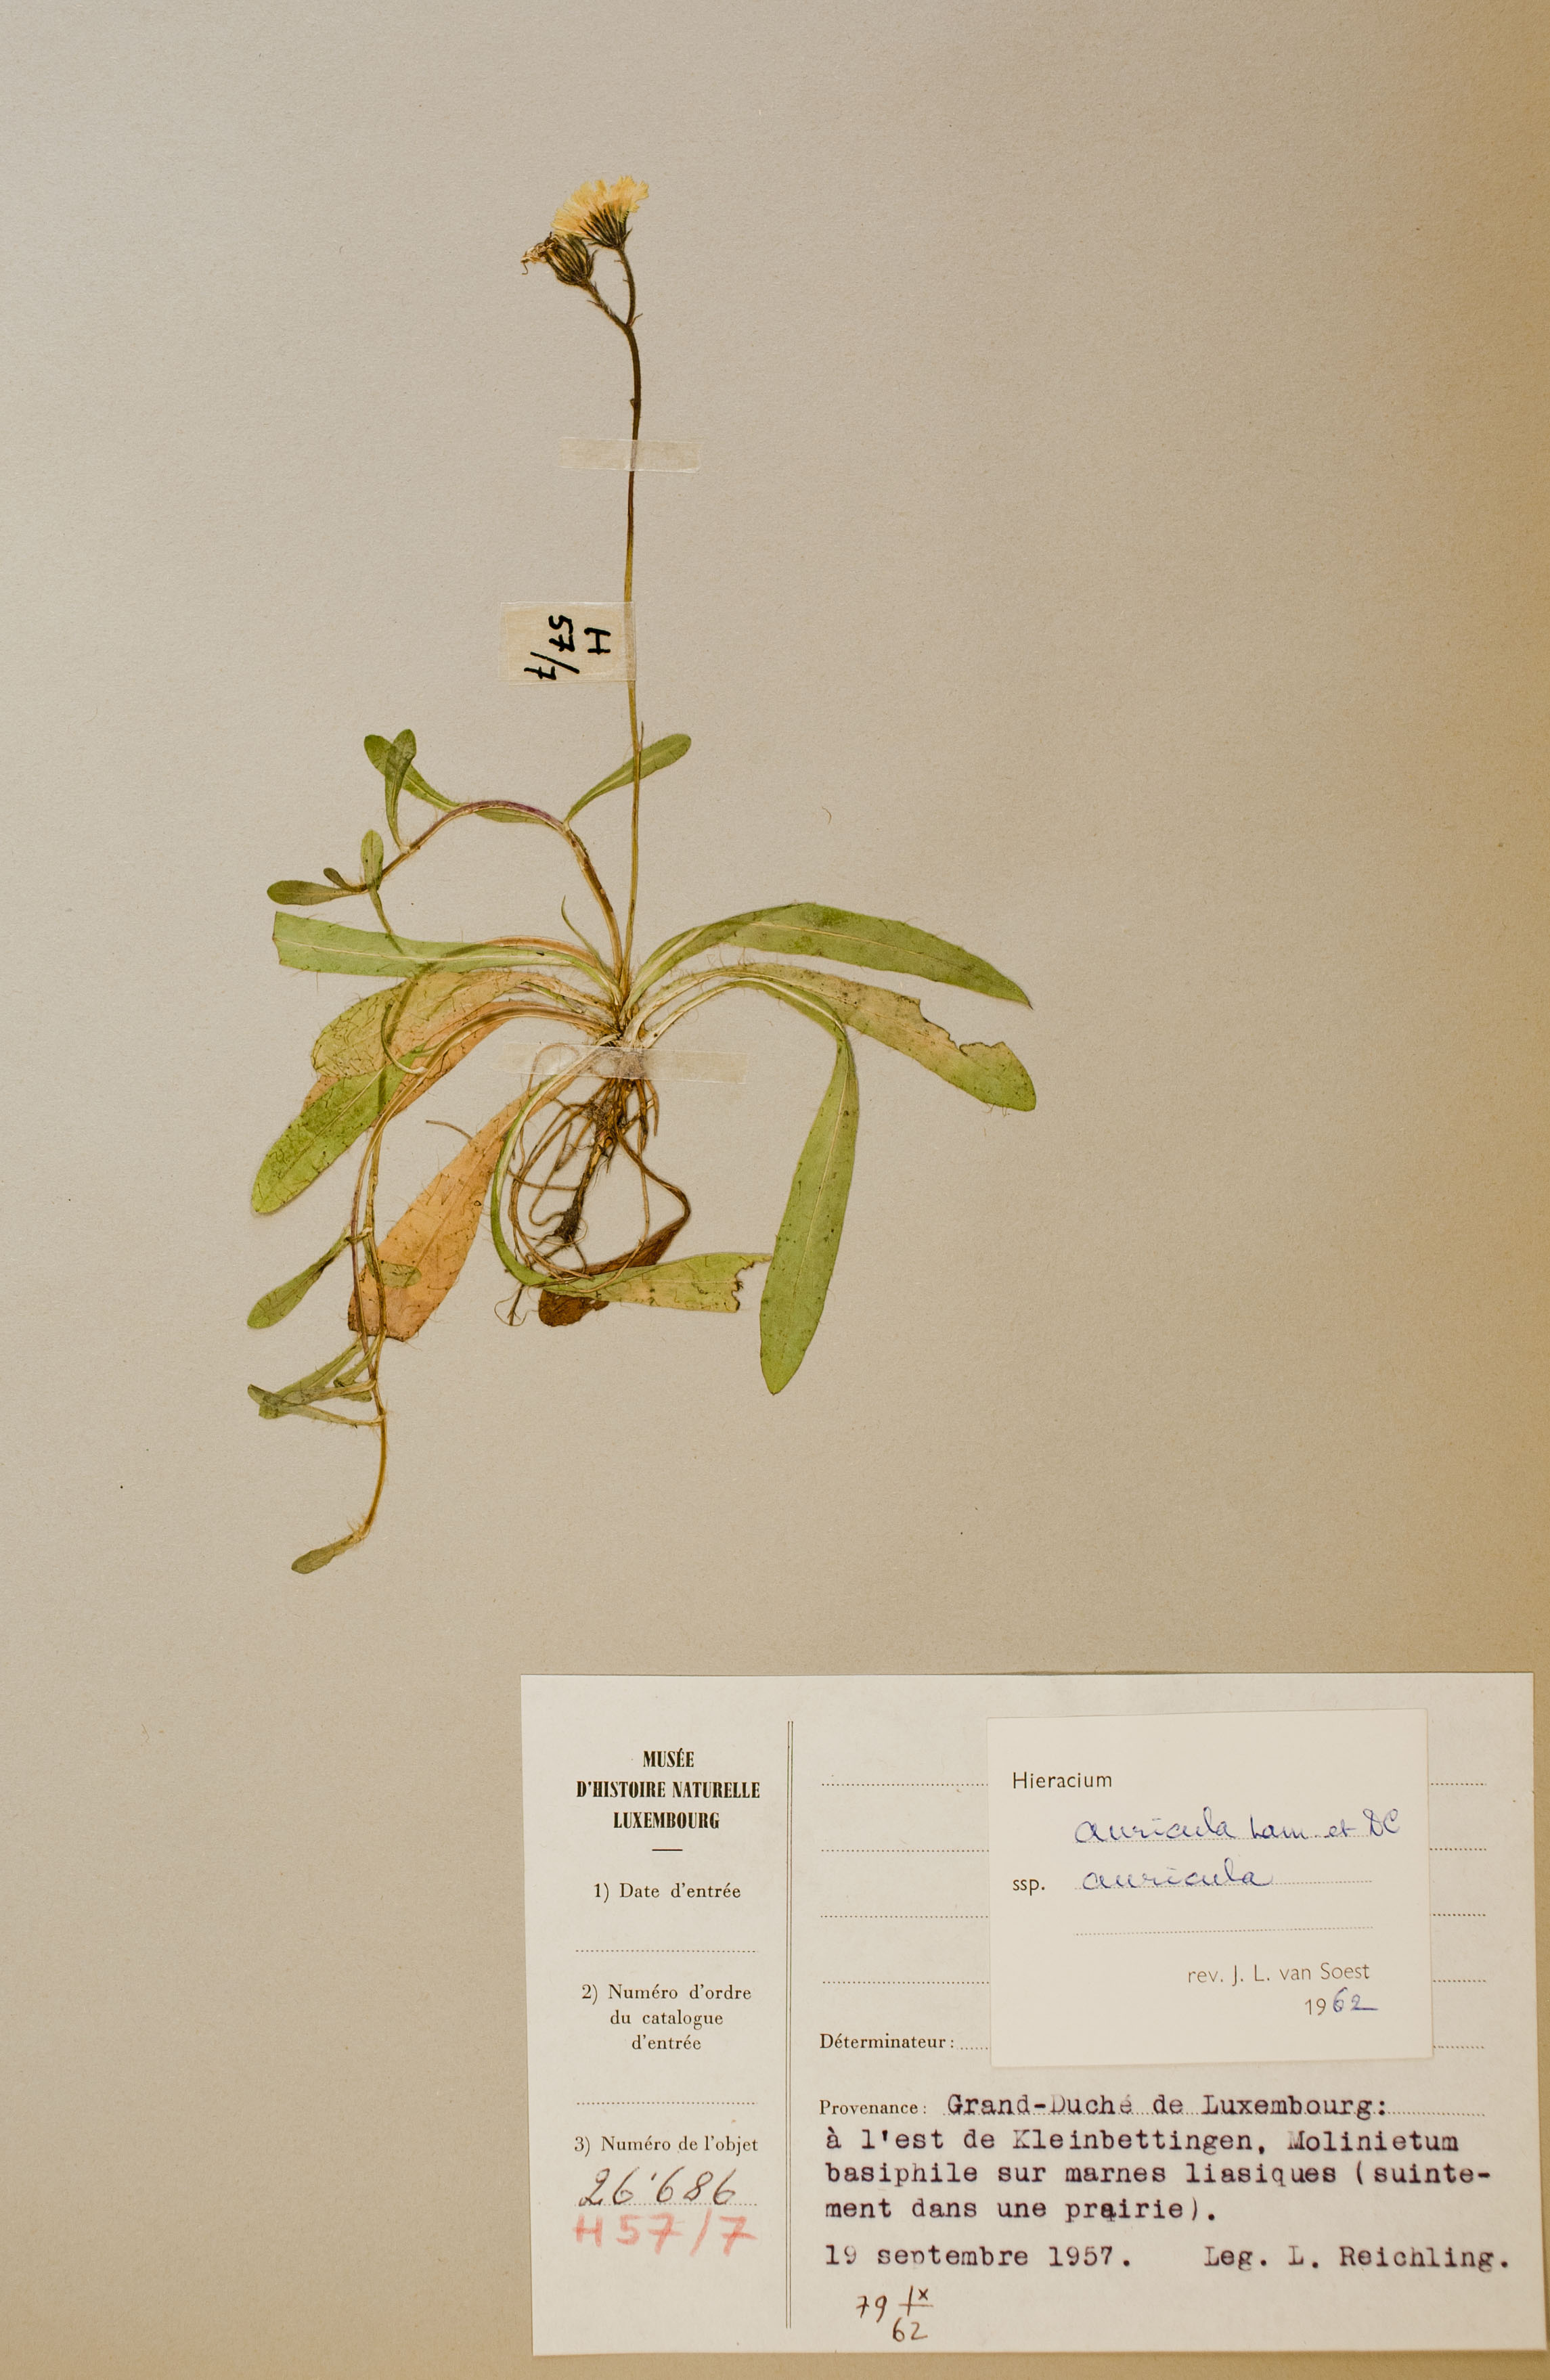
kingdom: Plantae
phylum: Tracheophyta
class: Magnoliopsida
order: Asterales
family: Asteraceae
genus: Hieracium
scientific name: Hieracium auricula
